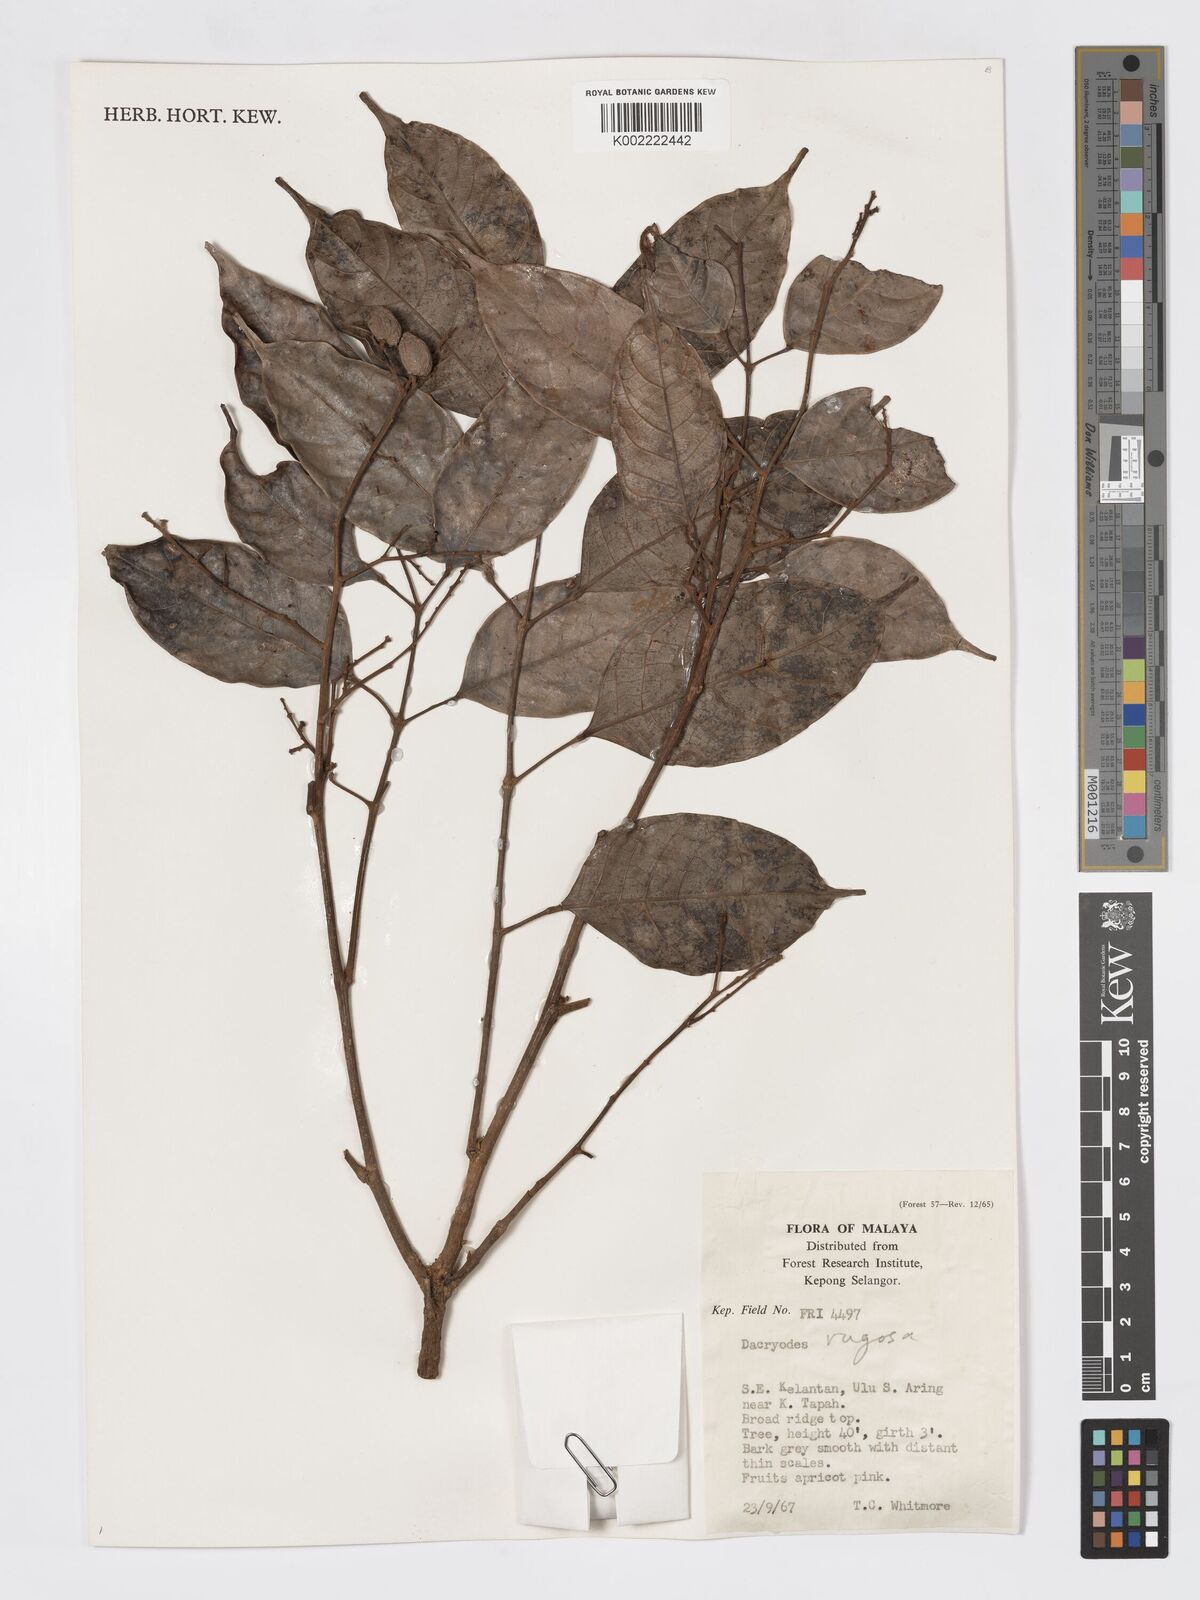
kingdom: Plantae
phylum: Tracheophyta
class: Magnoliopsida
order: Sapindales
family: Burseraceae
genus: Dacryodes
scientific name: Dacryodes rugosa
